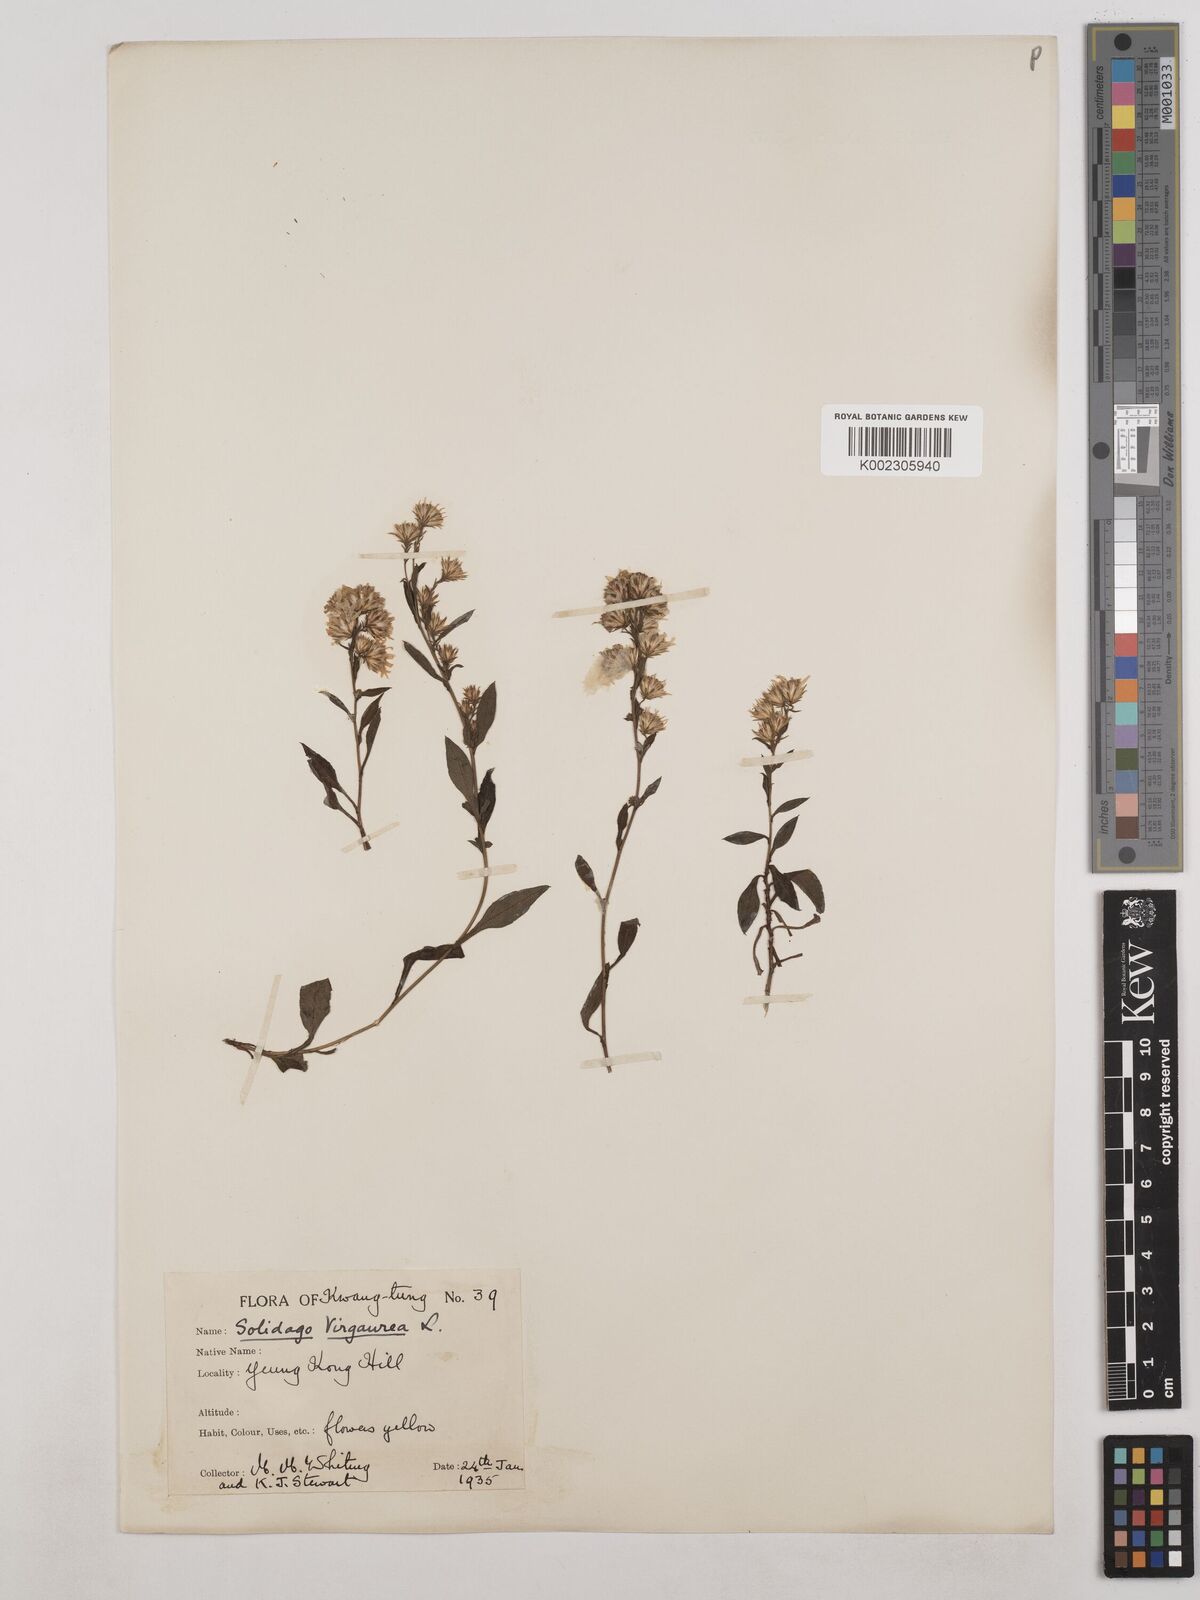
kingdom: Plantae
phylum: Tracheophyta
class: Magnoliopsida
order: Asterales
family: Asteraceae
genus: Solidago
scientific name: Solidago virgaurea
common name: Goldenrod
